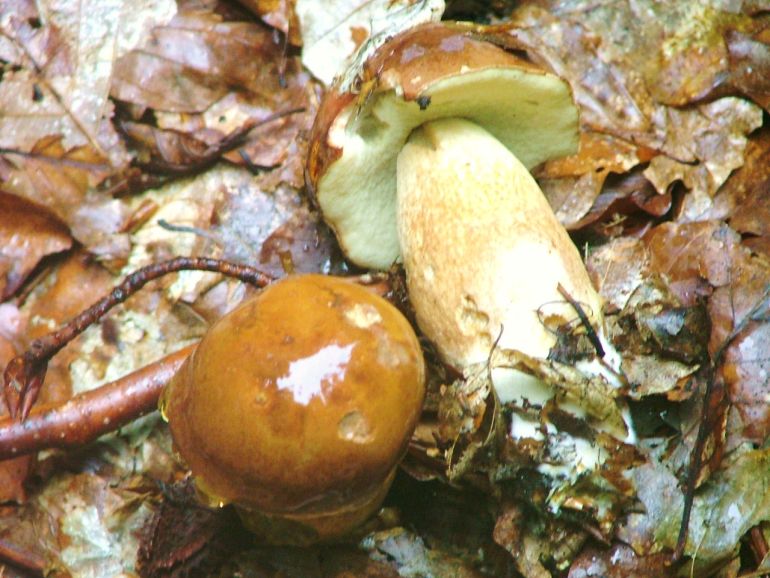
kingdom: Fungi
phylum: Basidiomycota
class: Agaricomycetes
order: Boletales
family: Boletaceae
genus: Boletus
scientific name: Boletus edulis
